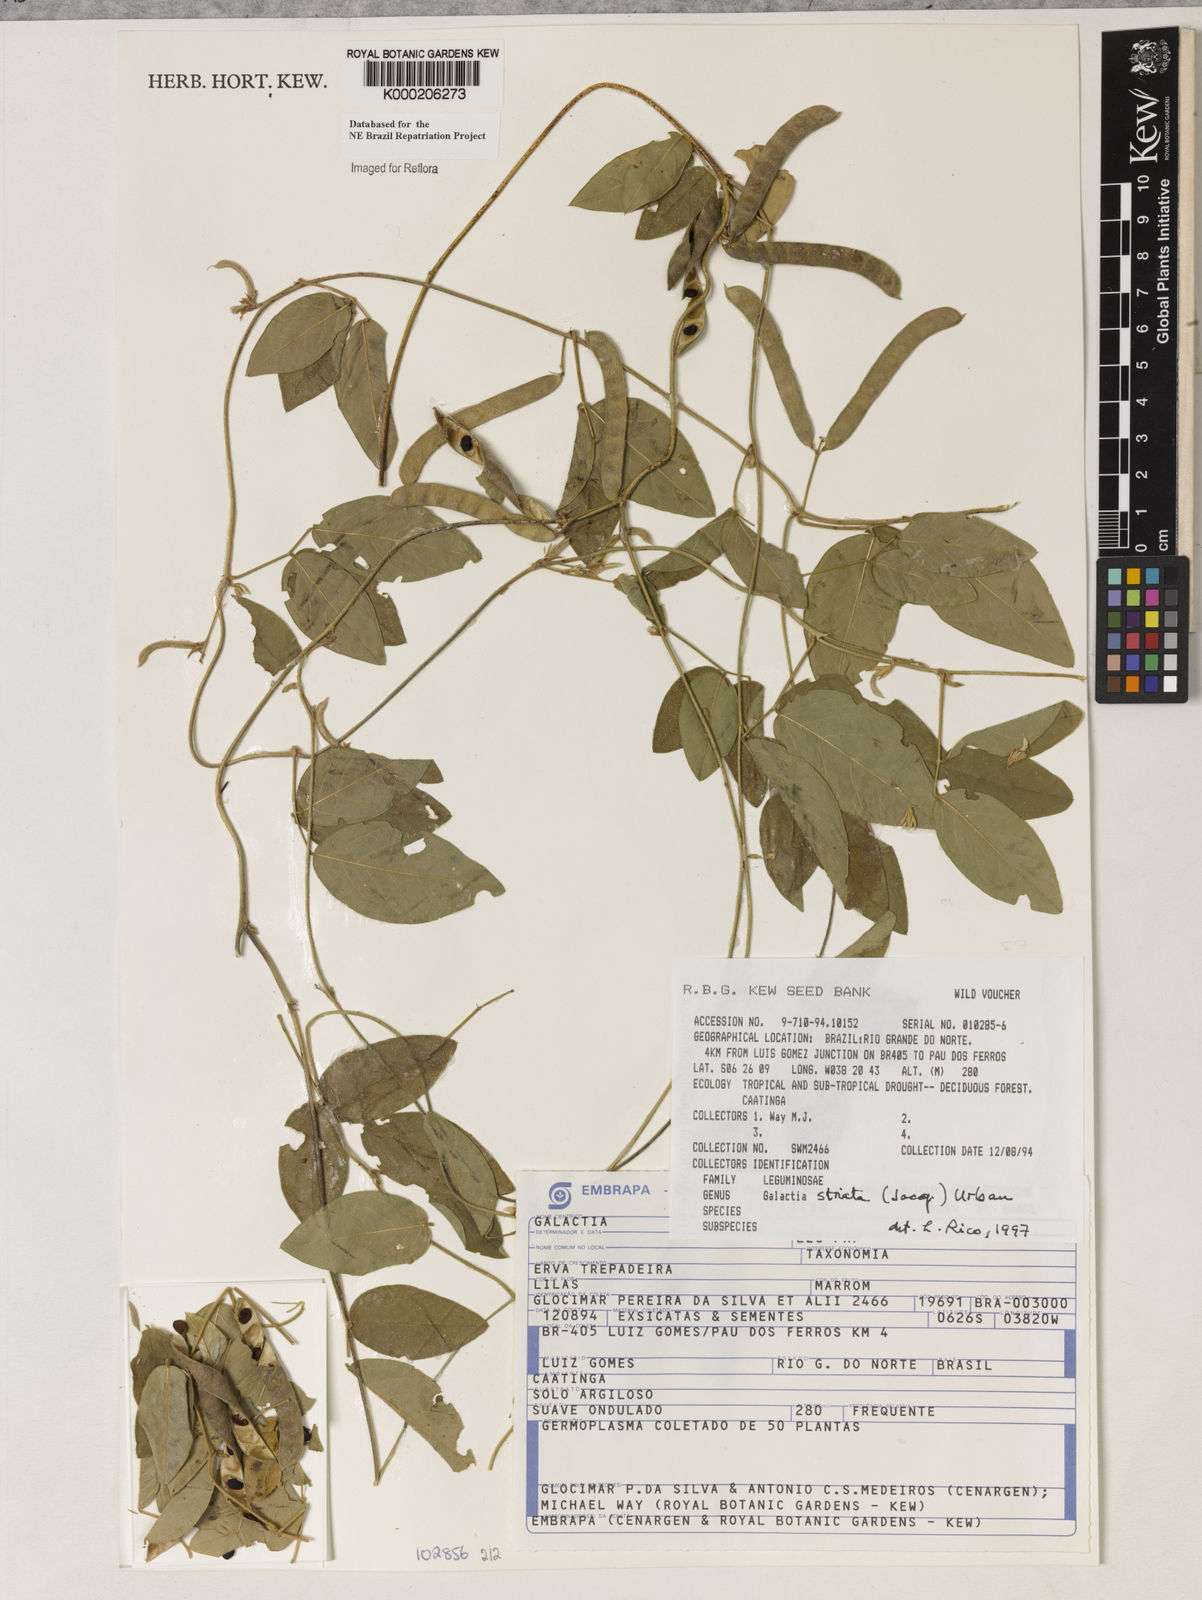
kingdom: Plantae
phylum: Tracheophyta
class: Magnoliopsida
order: Fabales
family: Fabaceae
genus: Galactia
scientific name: Galactia striata
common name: Florida hammock milkpea
